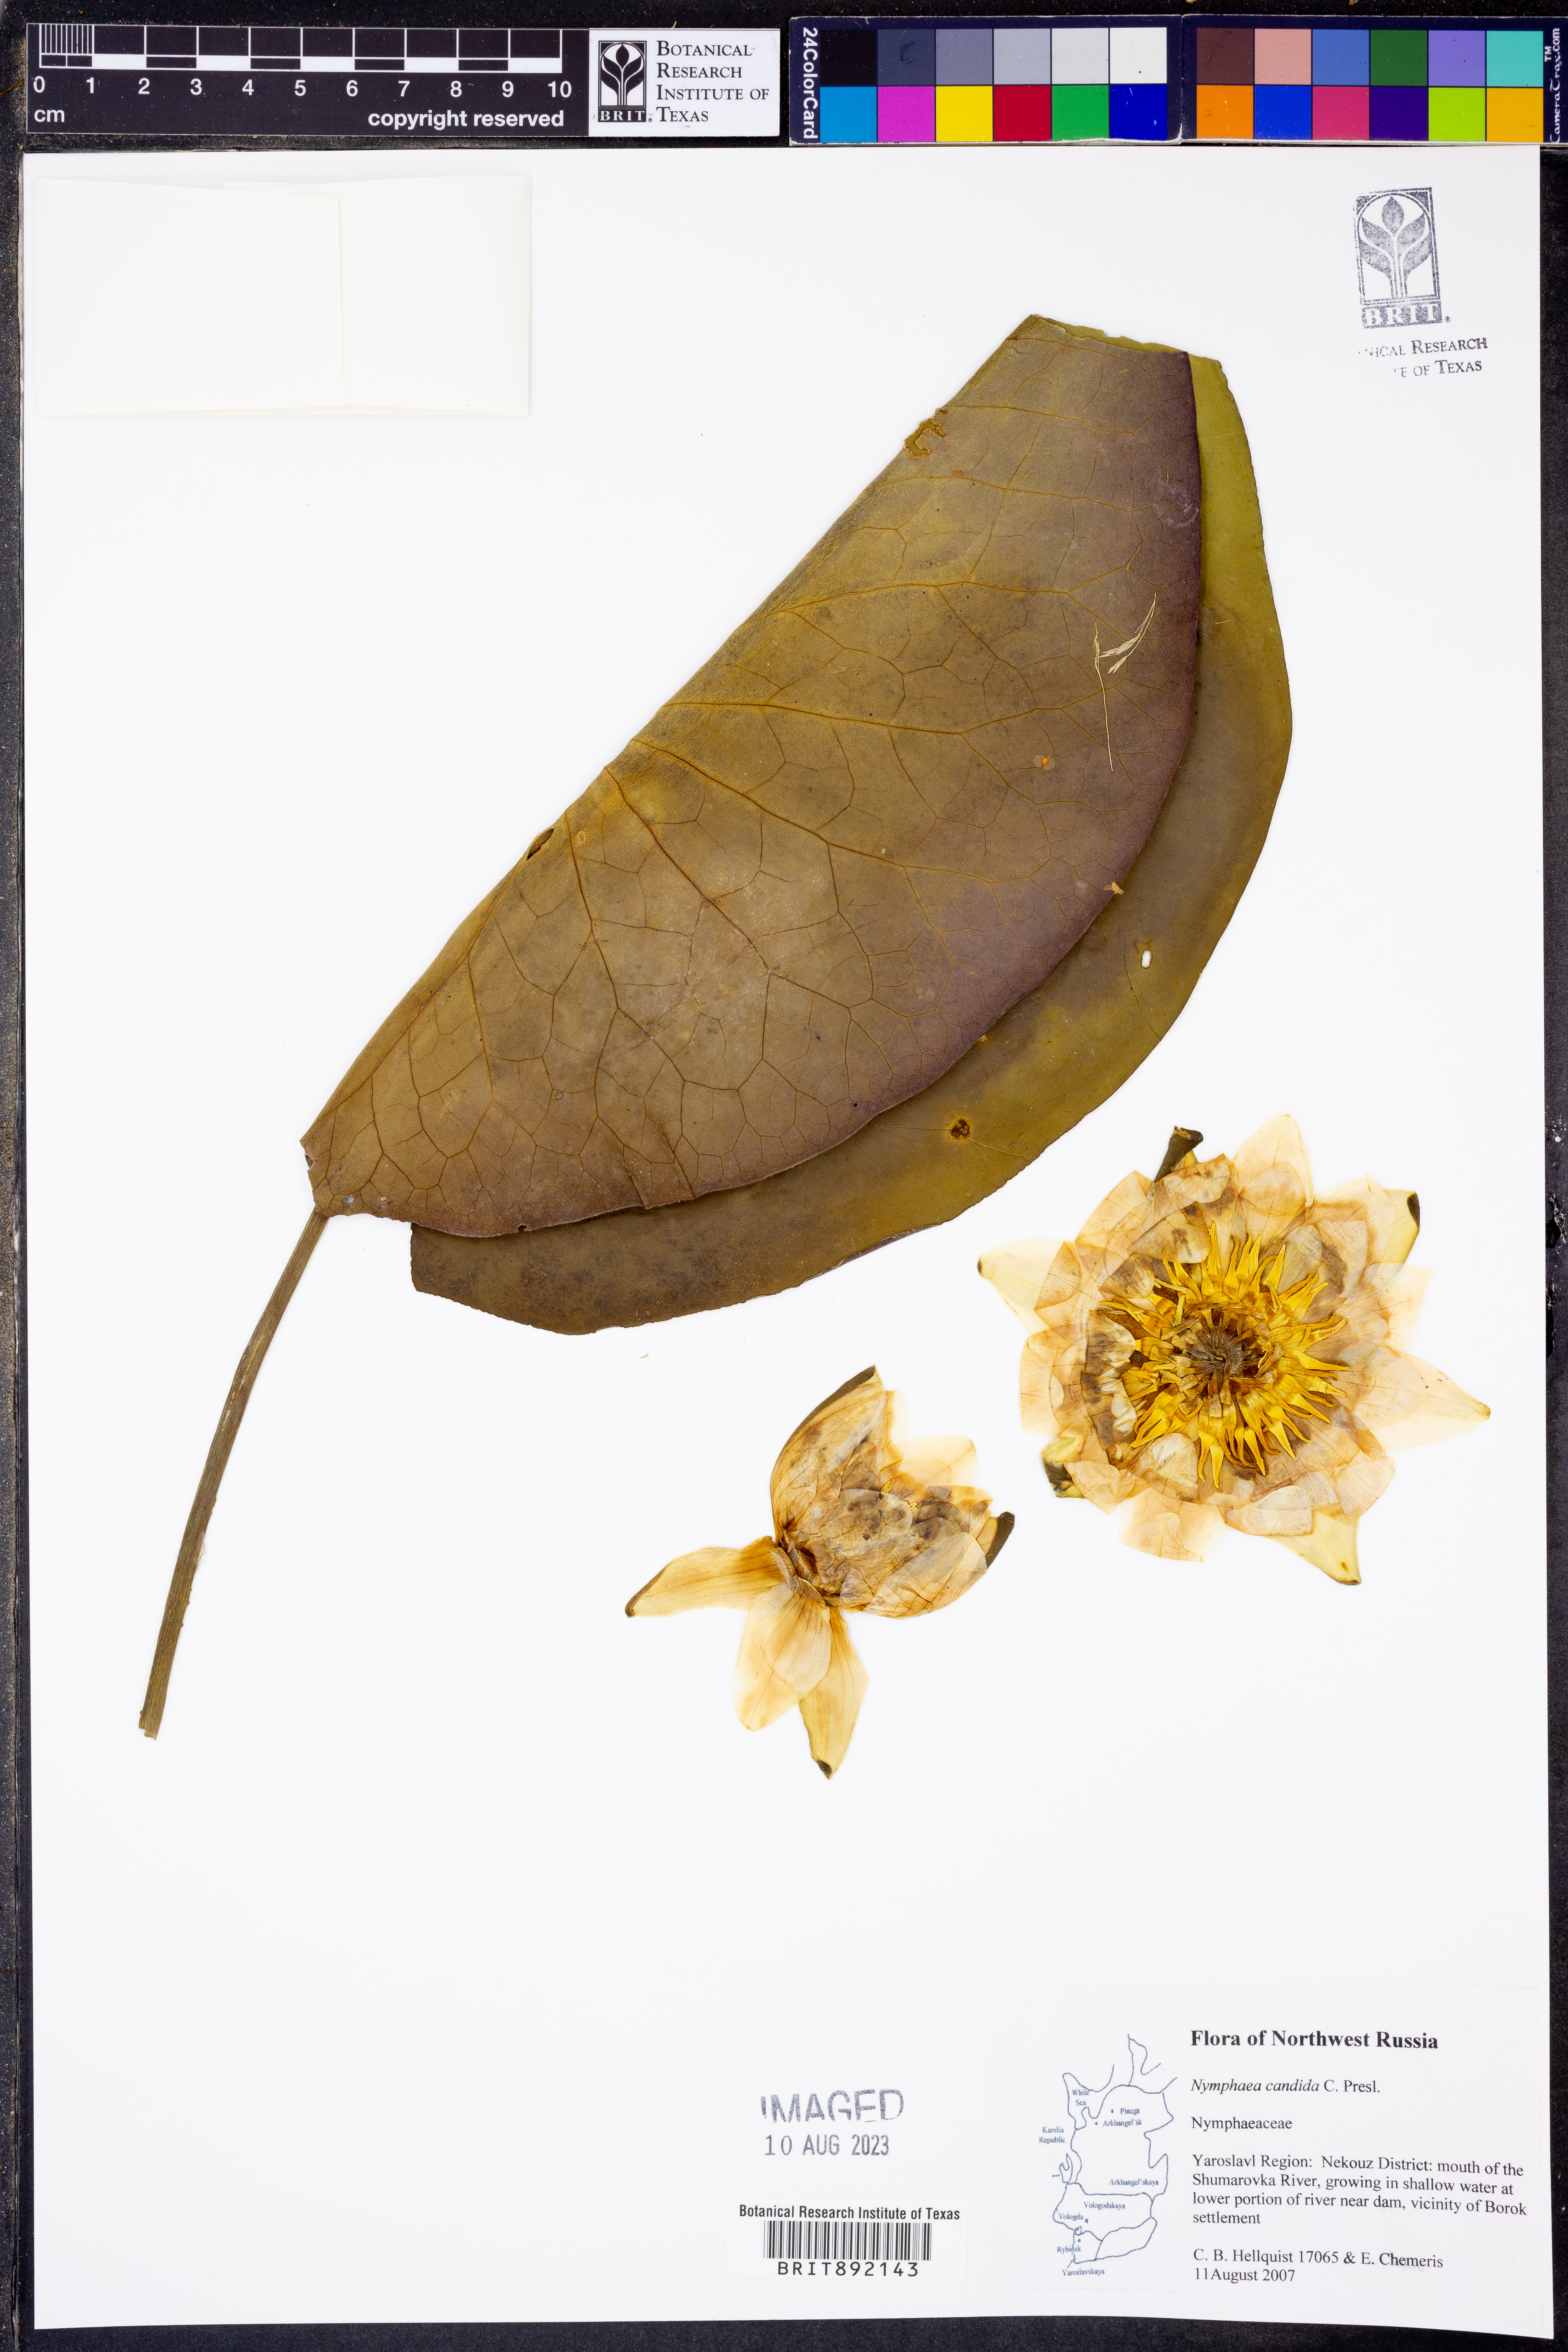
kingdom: Plantae
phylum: Tracheophyta
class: Magnoliopsida
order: Nymphaeales
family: Nymphaeaceae
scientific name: Nymphaeaceae
